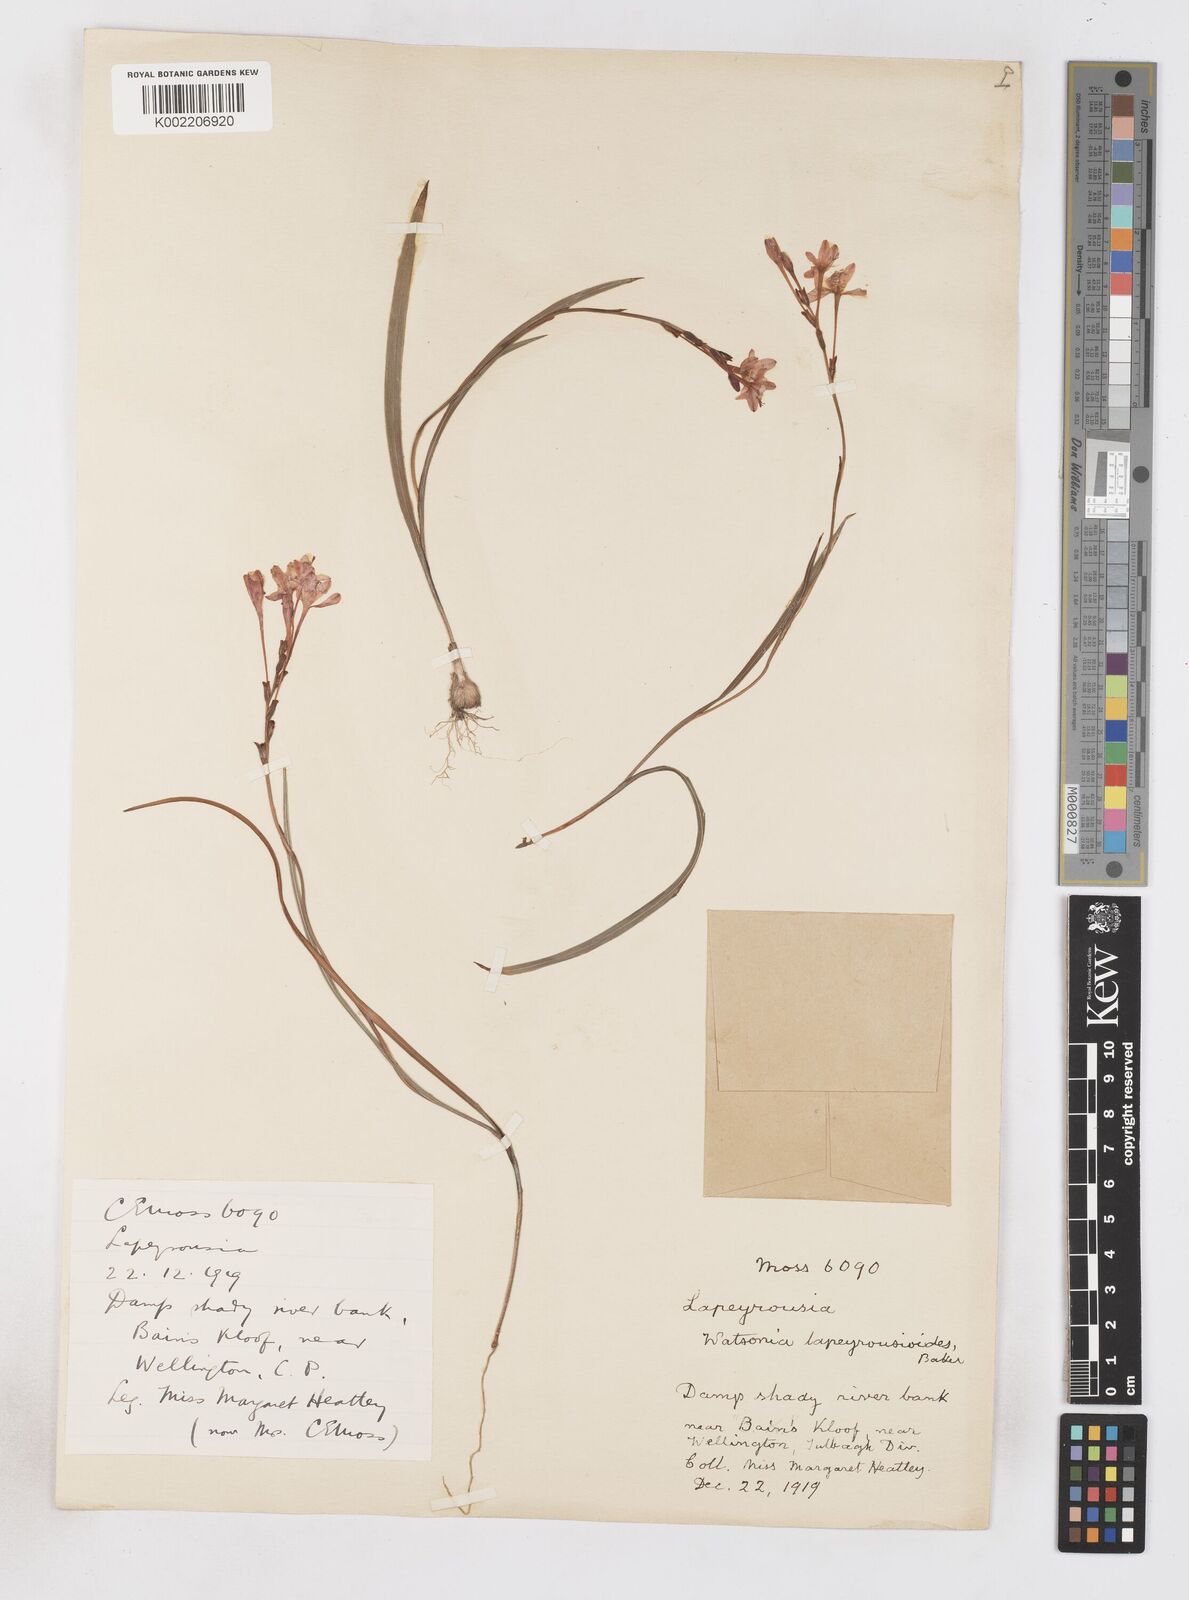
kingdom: Plantae
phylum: Tracheophyta
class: Liliopsida
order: Asparagales
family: Iridaceae
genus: Micranthus
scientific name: Micranthus
